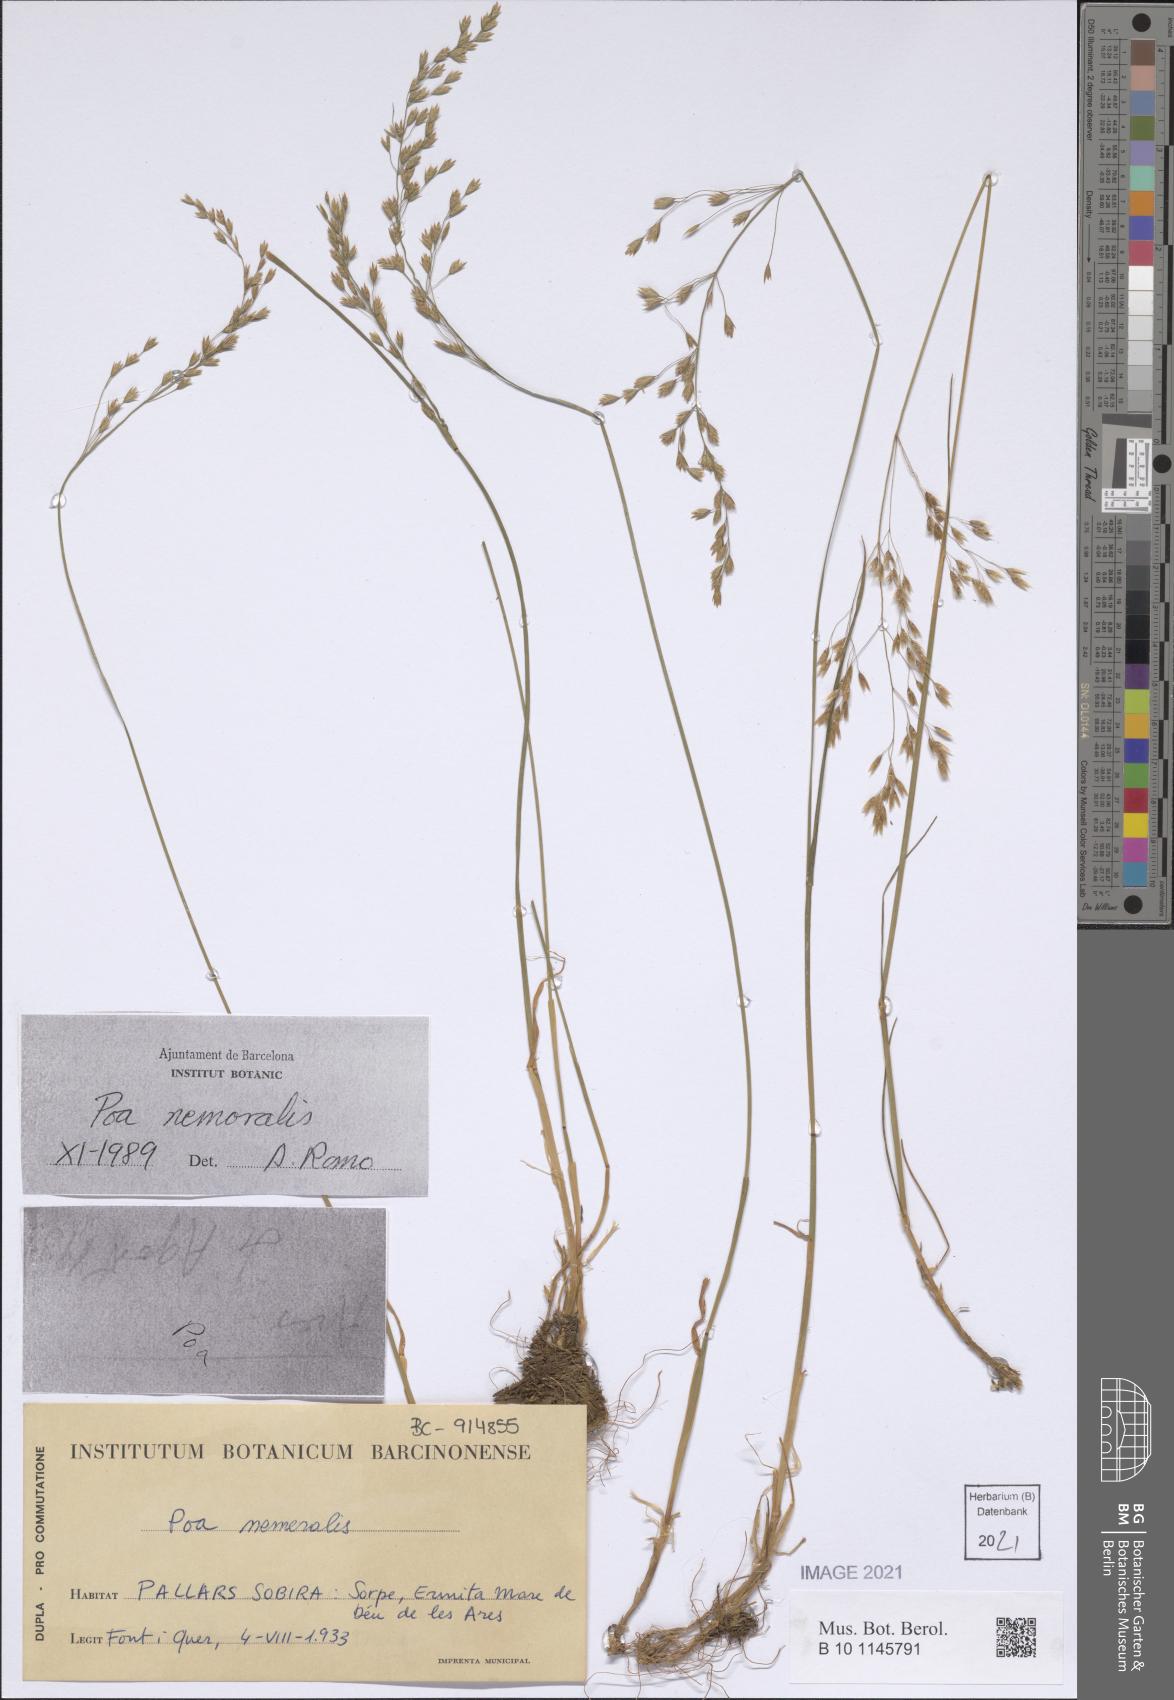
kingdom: Plantae
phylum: Tracheophyta
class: Liliopsida
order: Poales
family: Poaceae
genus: Poa
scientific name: Poa nemoralis
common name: Wood bluegrass
